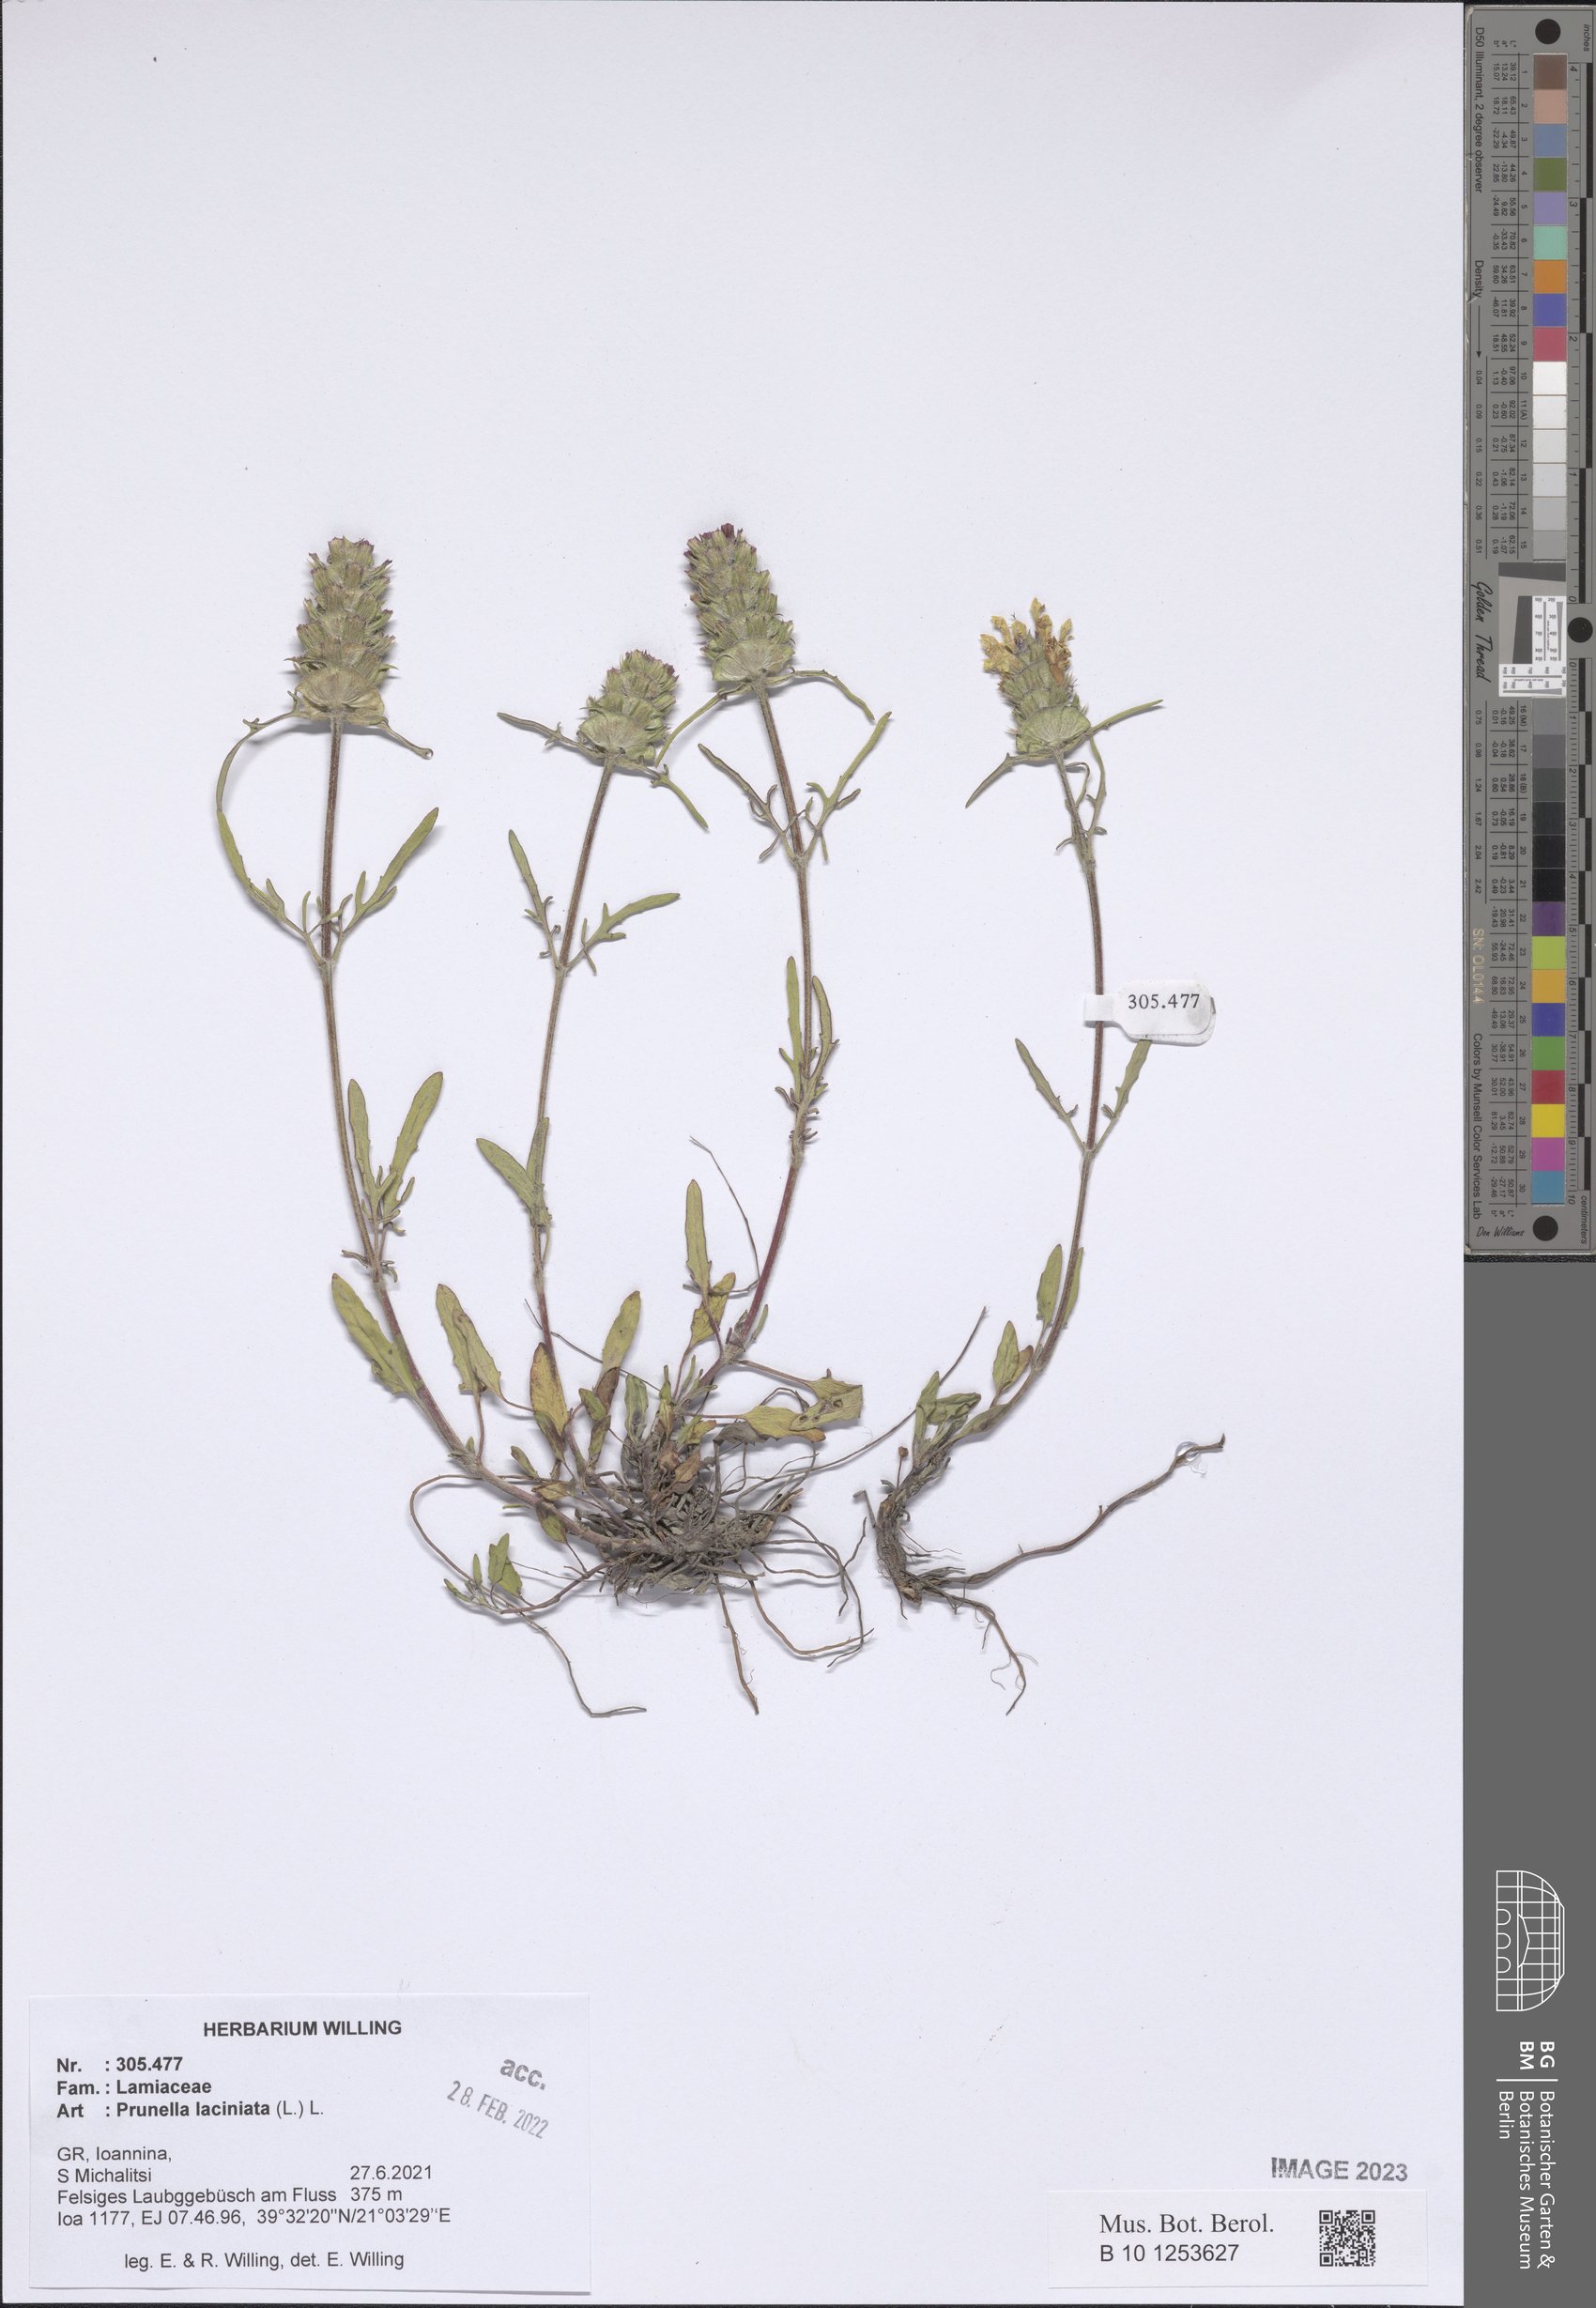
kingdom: Plantae
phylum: Tracheophyta
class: Magnoliopsida
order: Lamiales
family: Lamiaceae
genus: Prunella
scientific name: Prunella laciniata
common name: Cut-leaved selfheal
